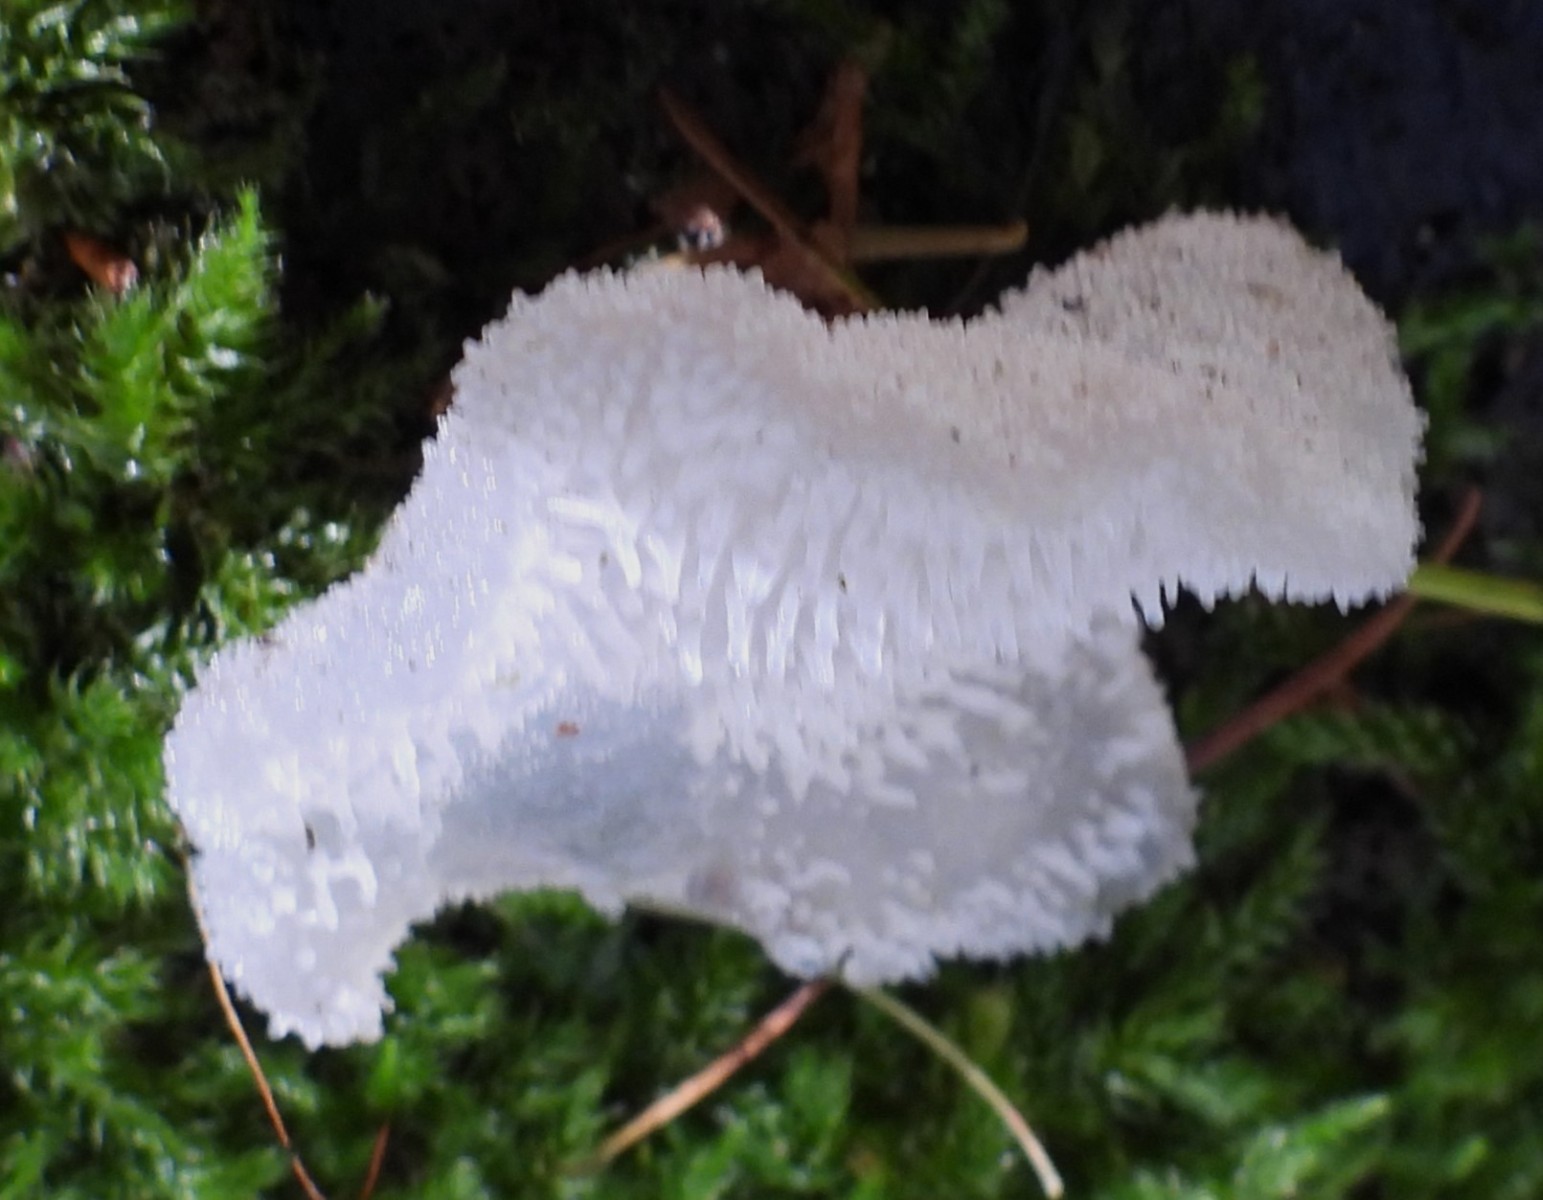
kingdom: Fungi
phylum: Basidiomycota
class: Agaricomycetes
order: Auriculariales
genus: Pseudohydnum
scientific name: Pseudohydnum gelatinosum
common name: bævretand
